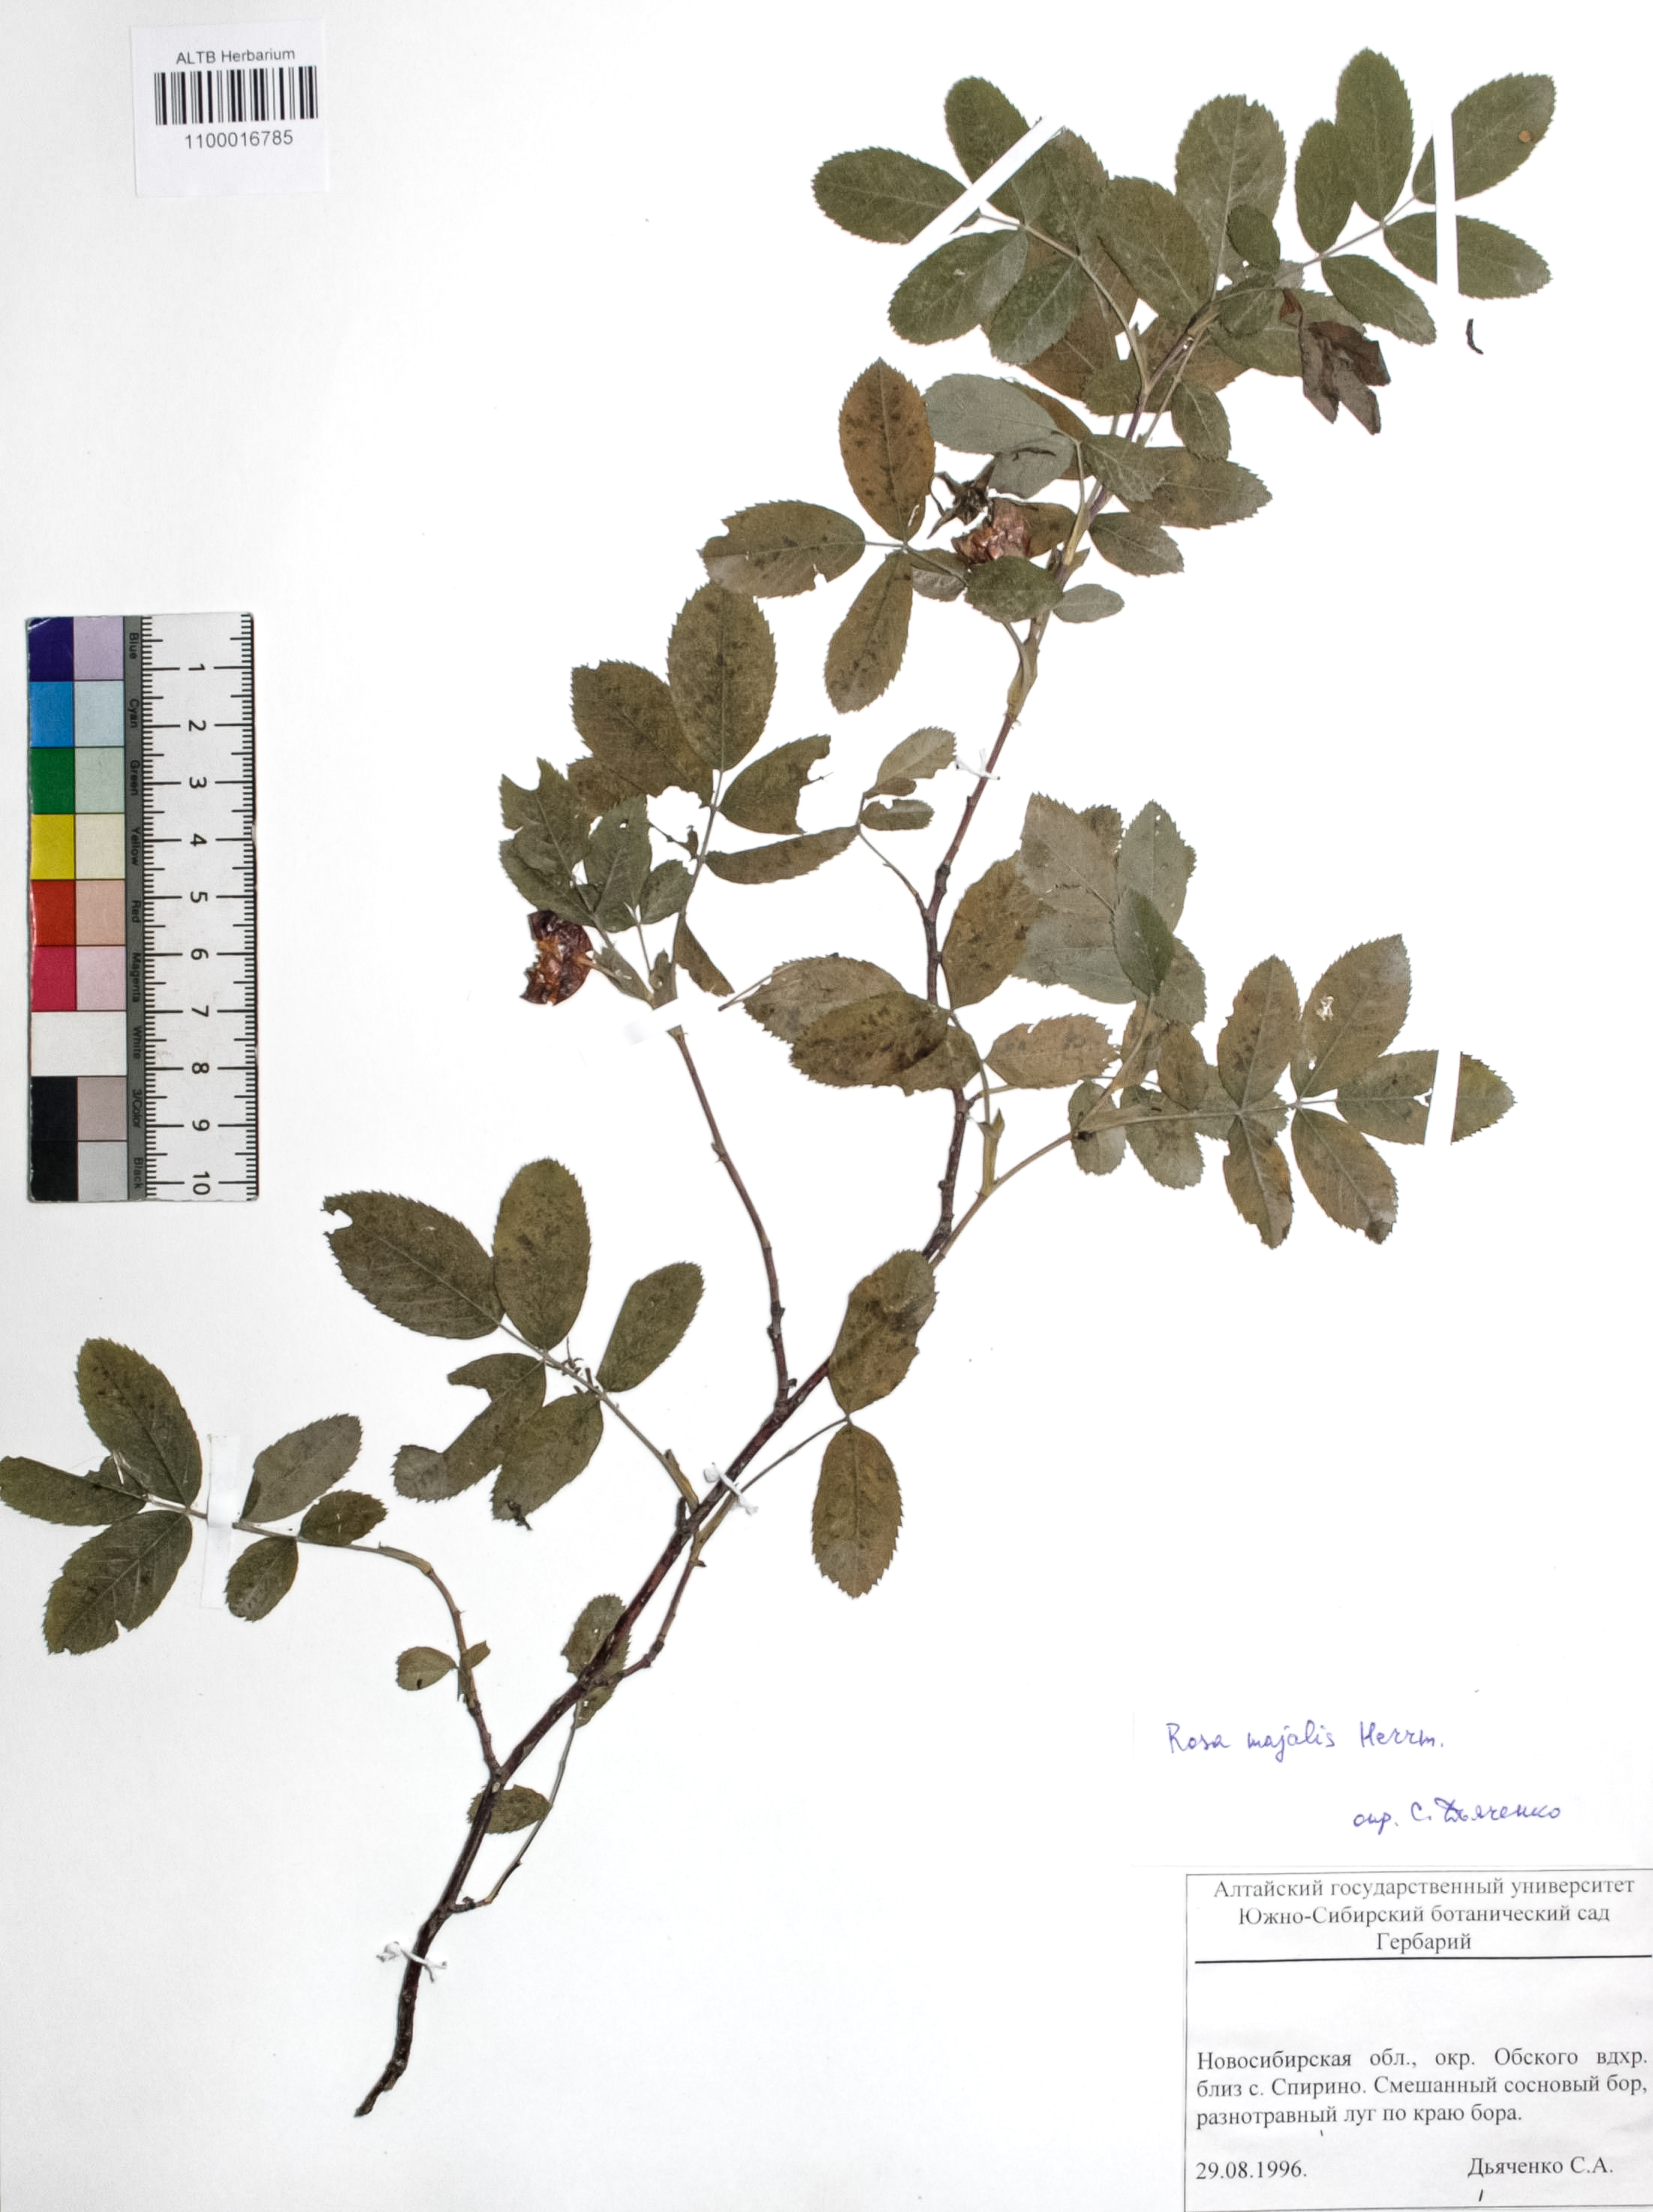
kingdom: Plantae
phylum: Tracheophyta
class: Magnoliopsida
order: Rosales
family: Rosaceae
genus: Rosa
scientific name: Rosa majalis
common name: Cinnamon rose
